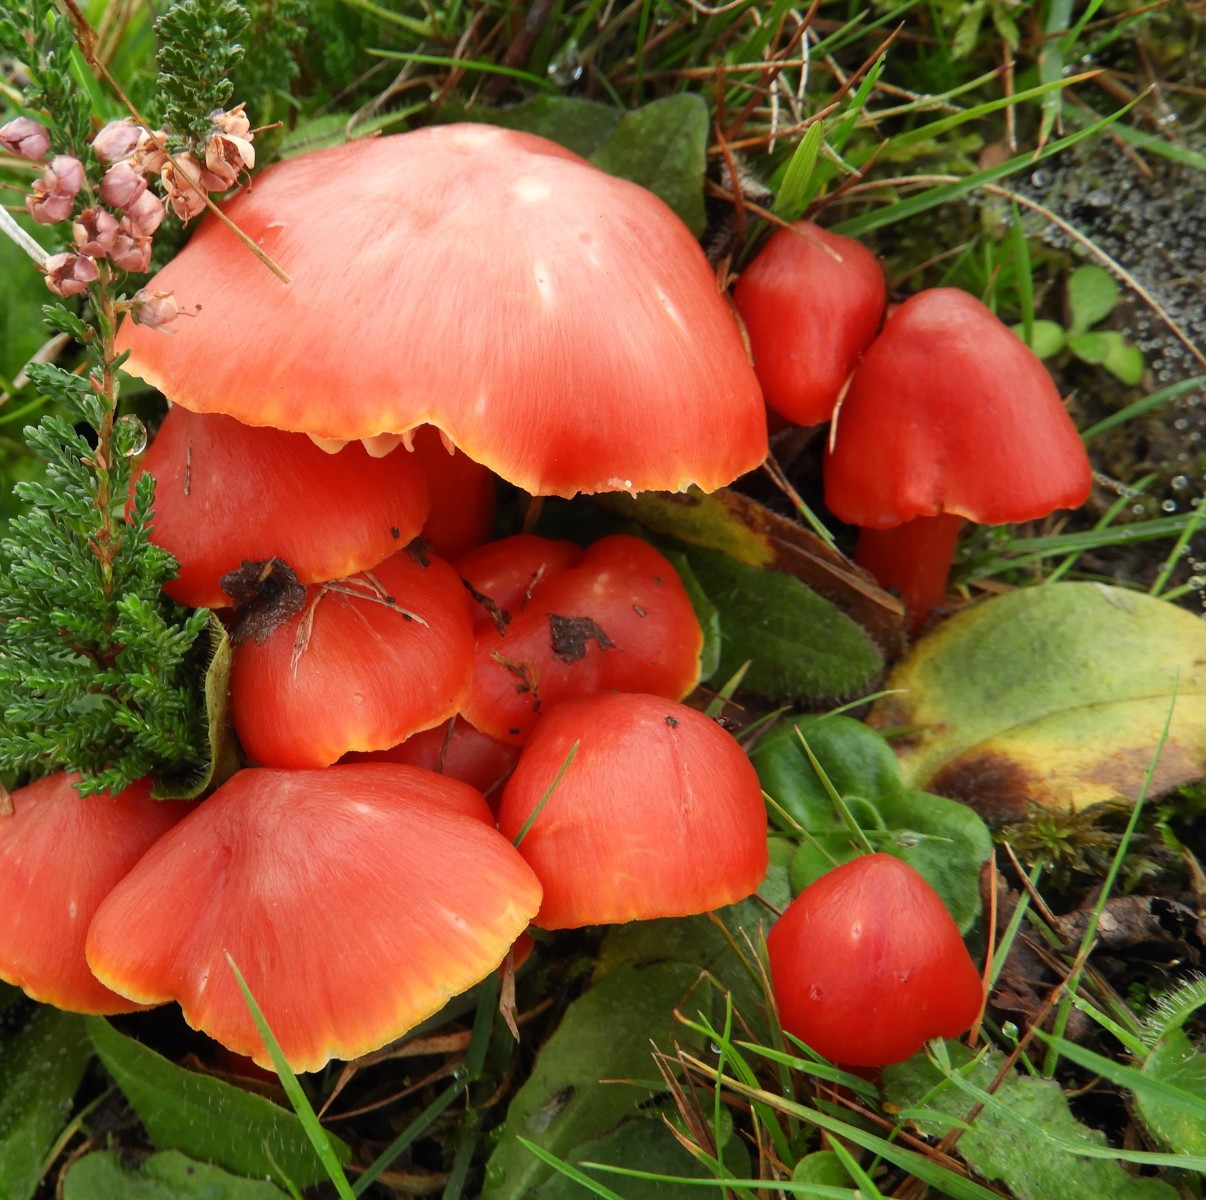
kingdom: Fungi
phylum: Basidiomycota
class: Agaricomycetes
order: Agaricales
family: Hygrophoraceae
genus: Hygrocybe
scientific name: Hygrocybe splendidissima
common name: knaldrød vokshat
